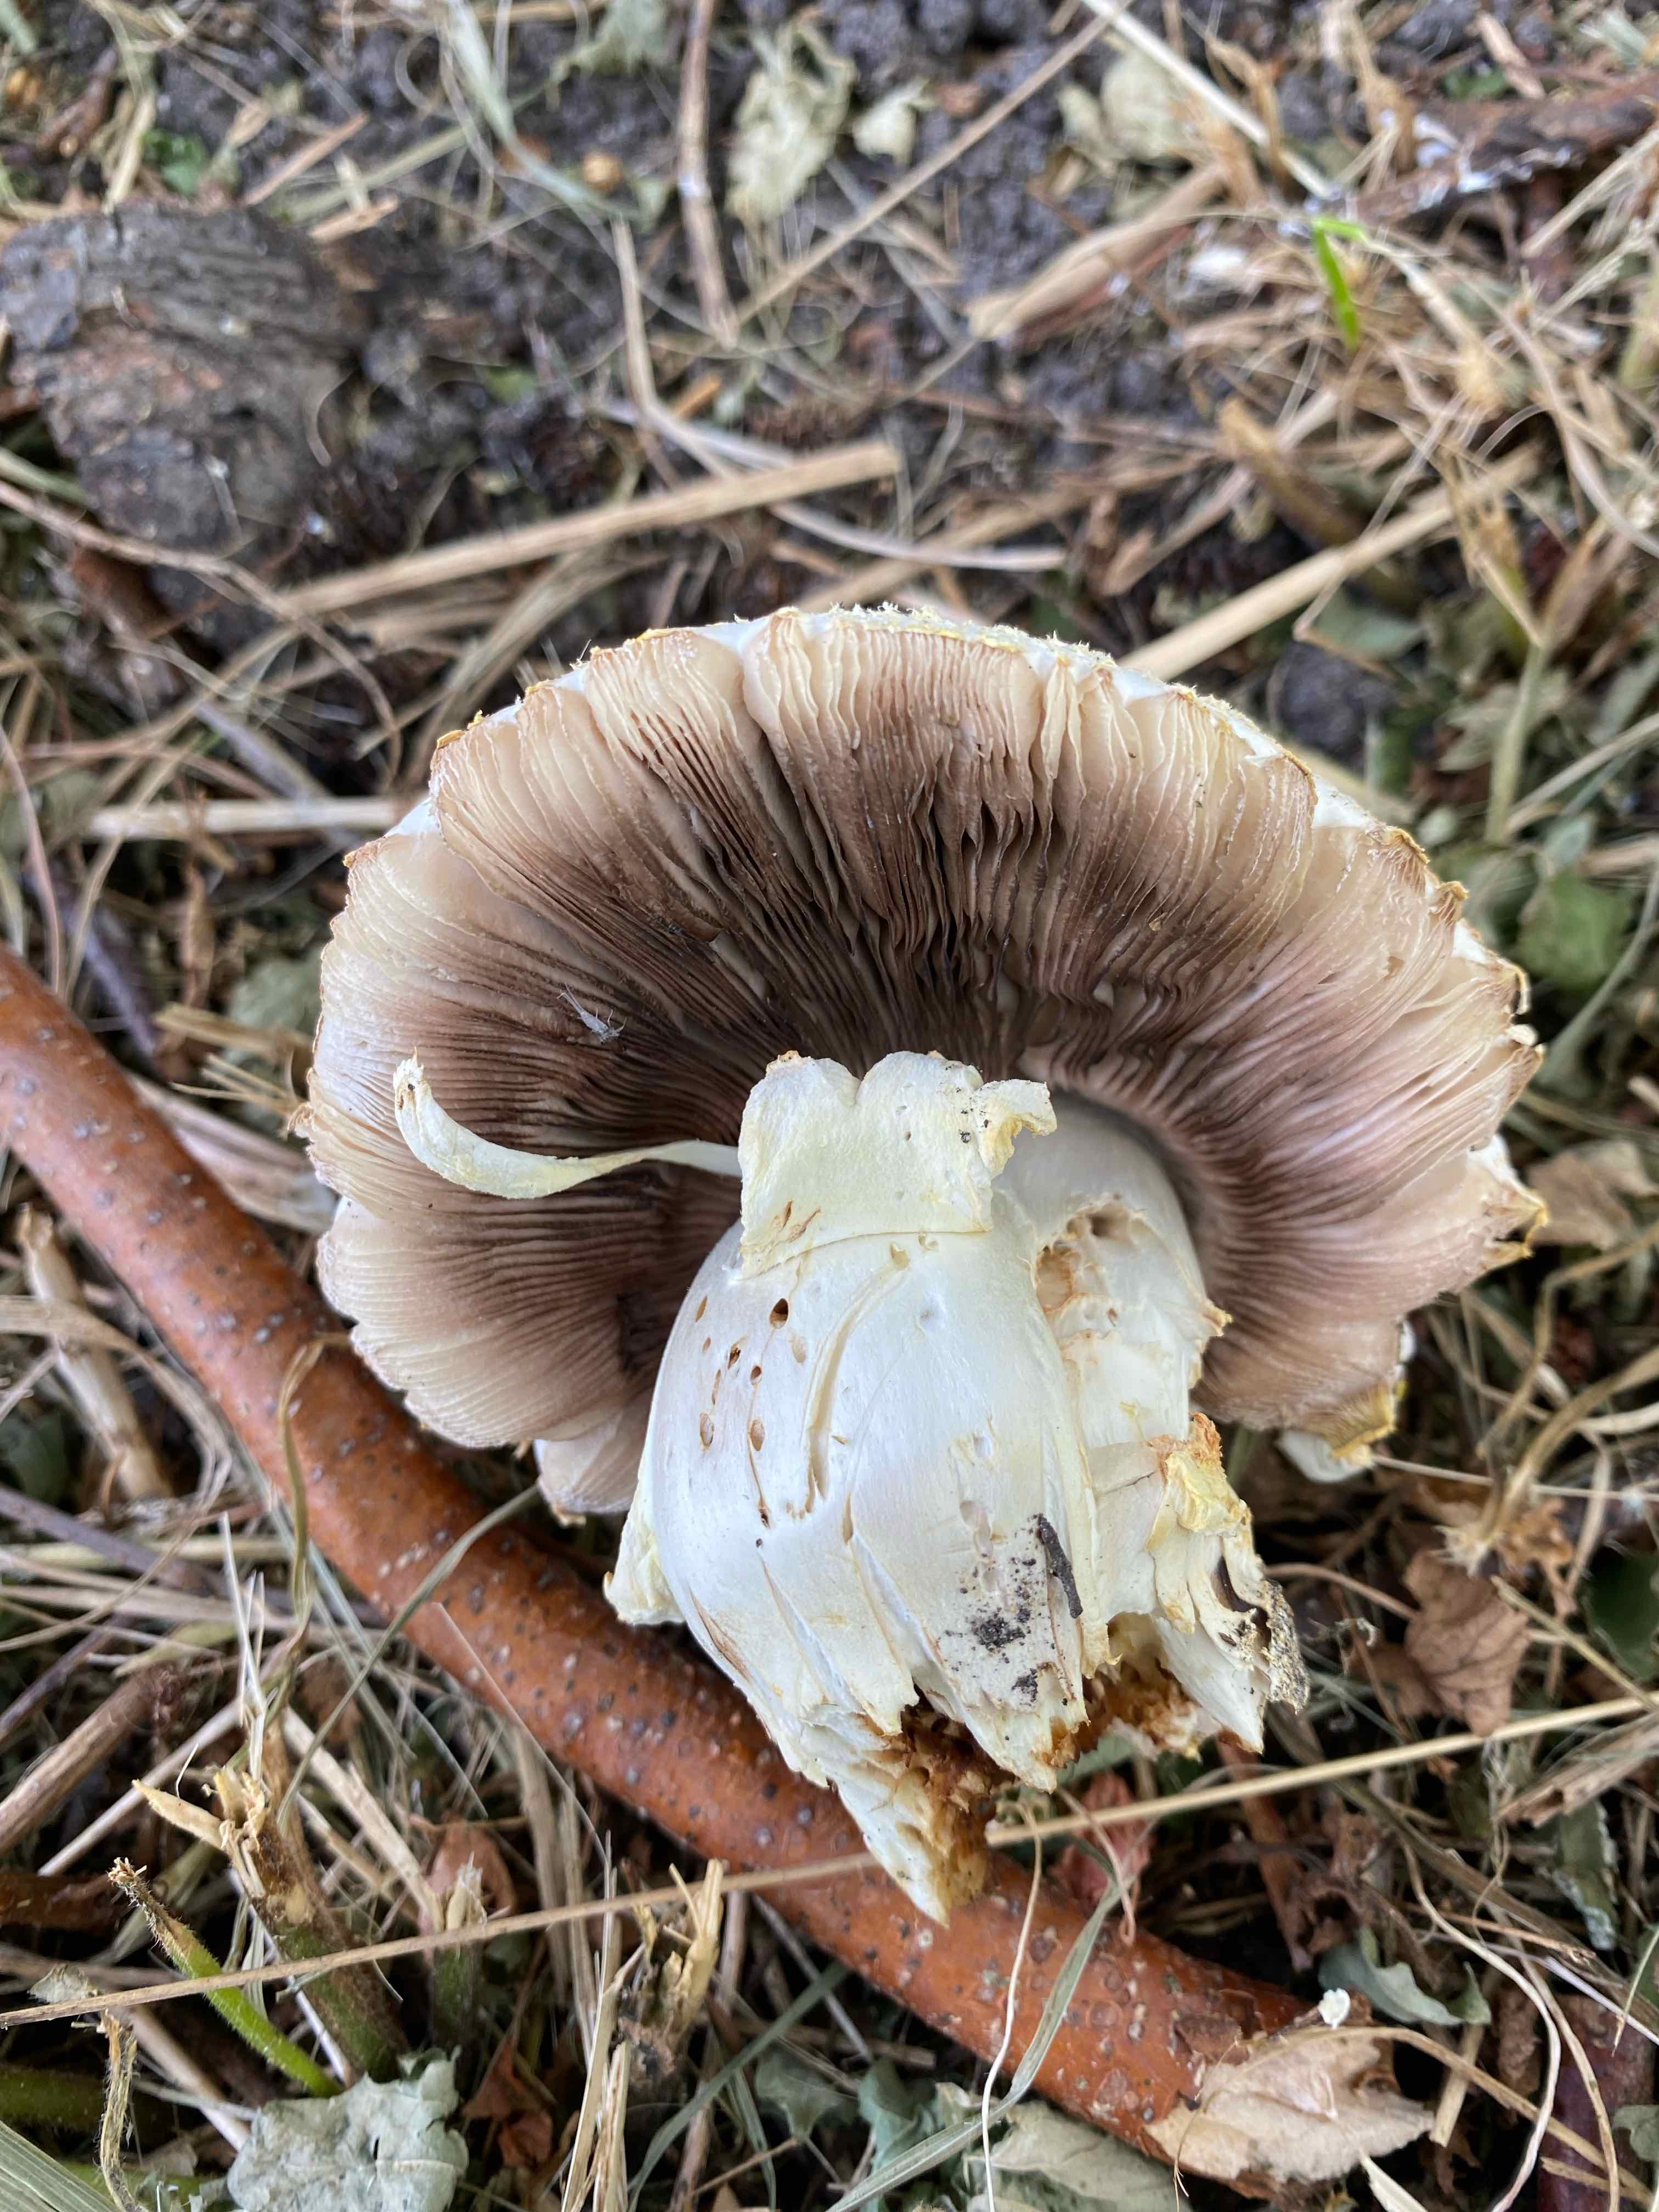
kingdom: Fungi
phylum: Basidiomycota
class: Agaricomycetes
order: Agaricales
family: Agaricaceae
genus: Agaricus
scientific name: Agaricus
